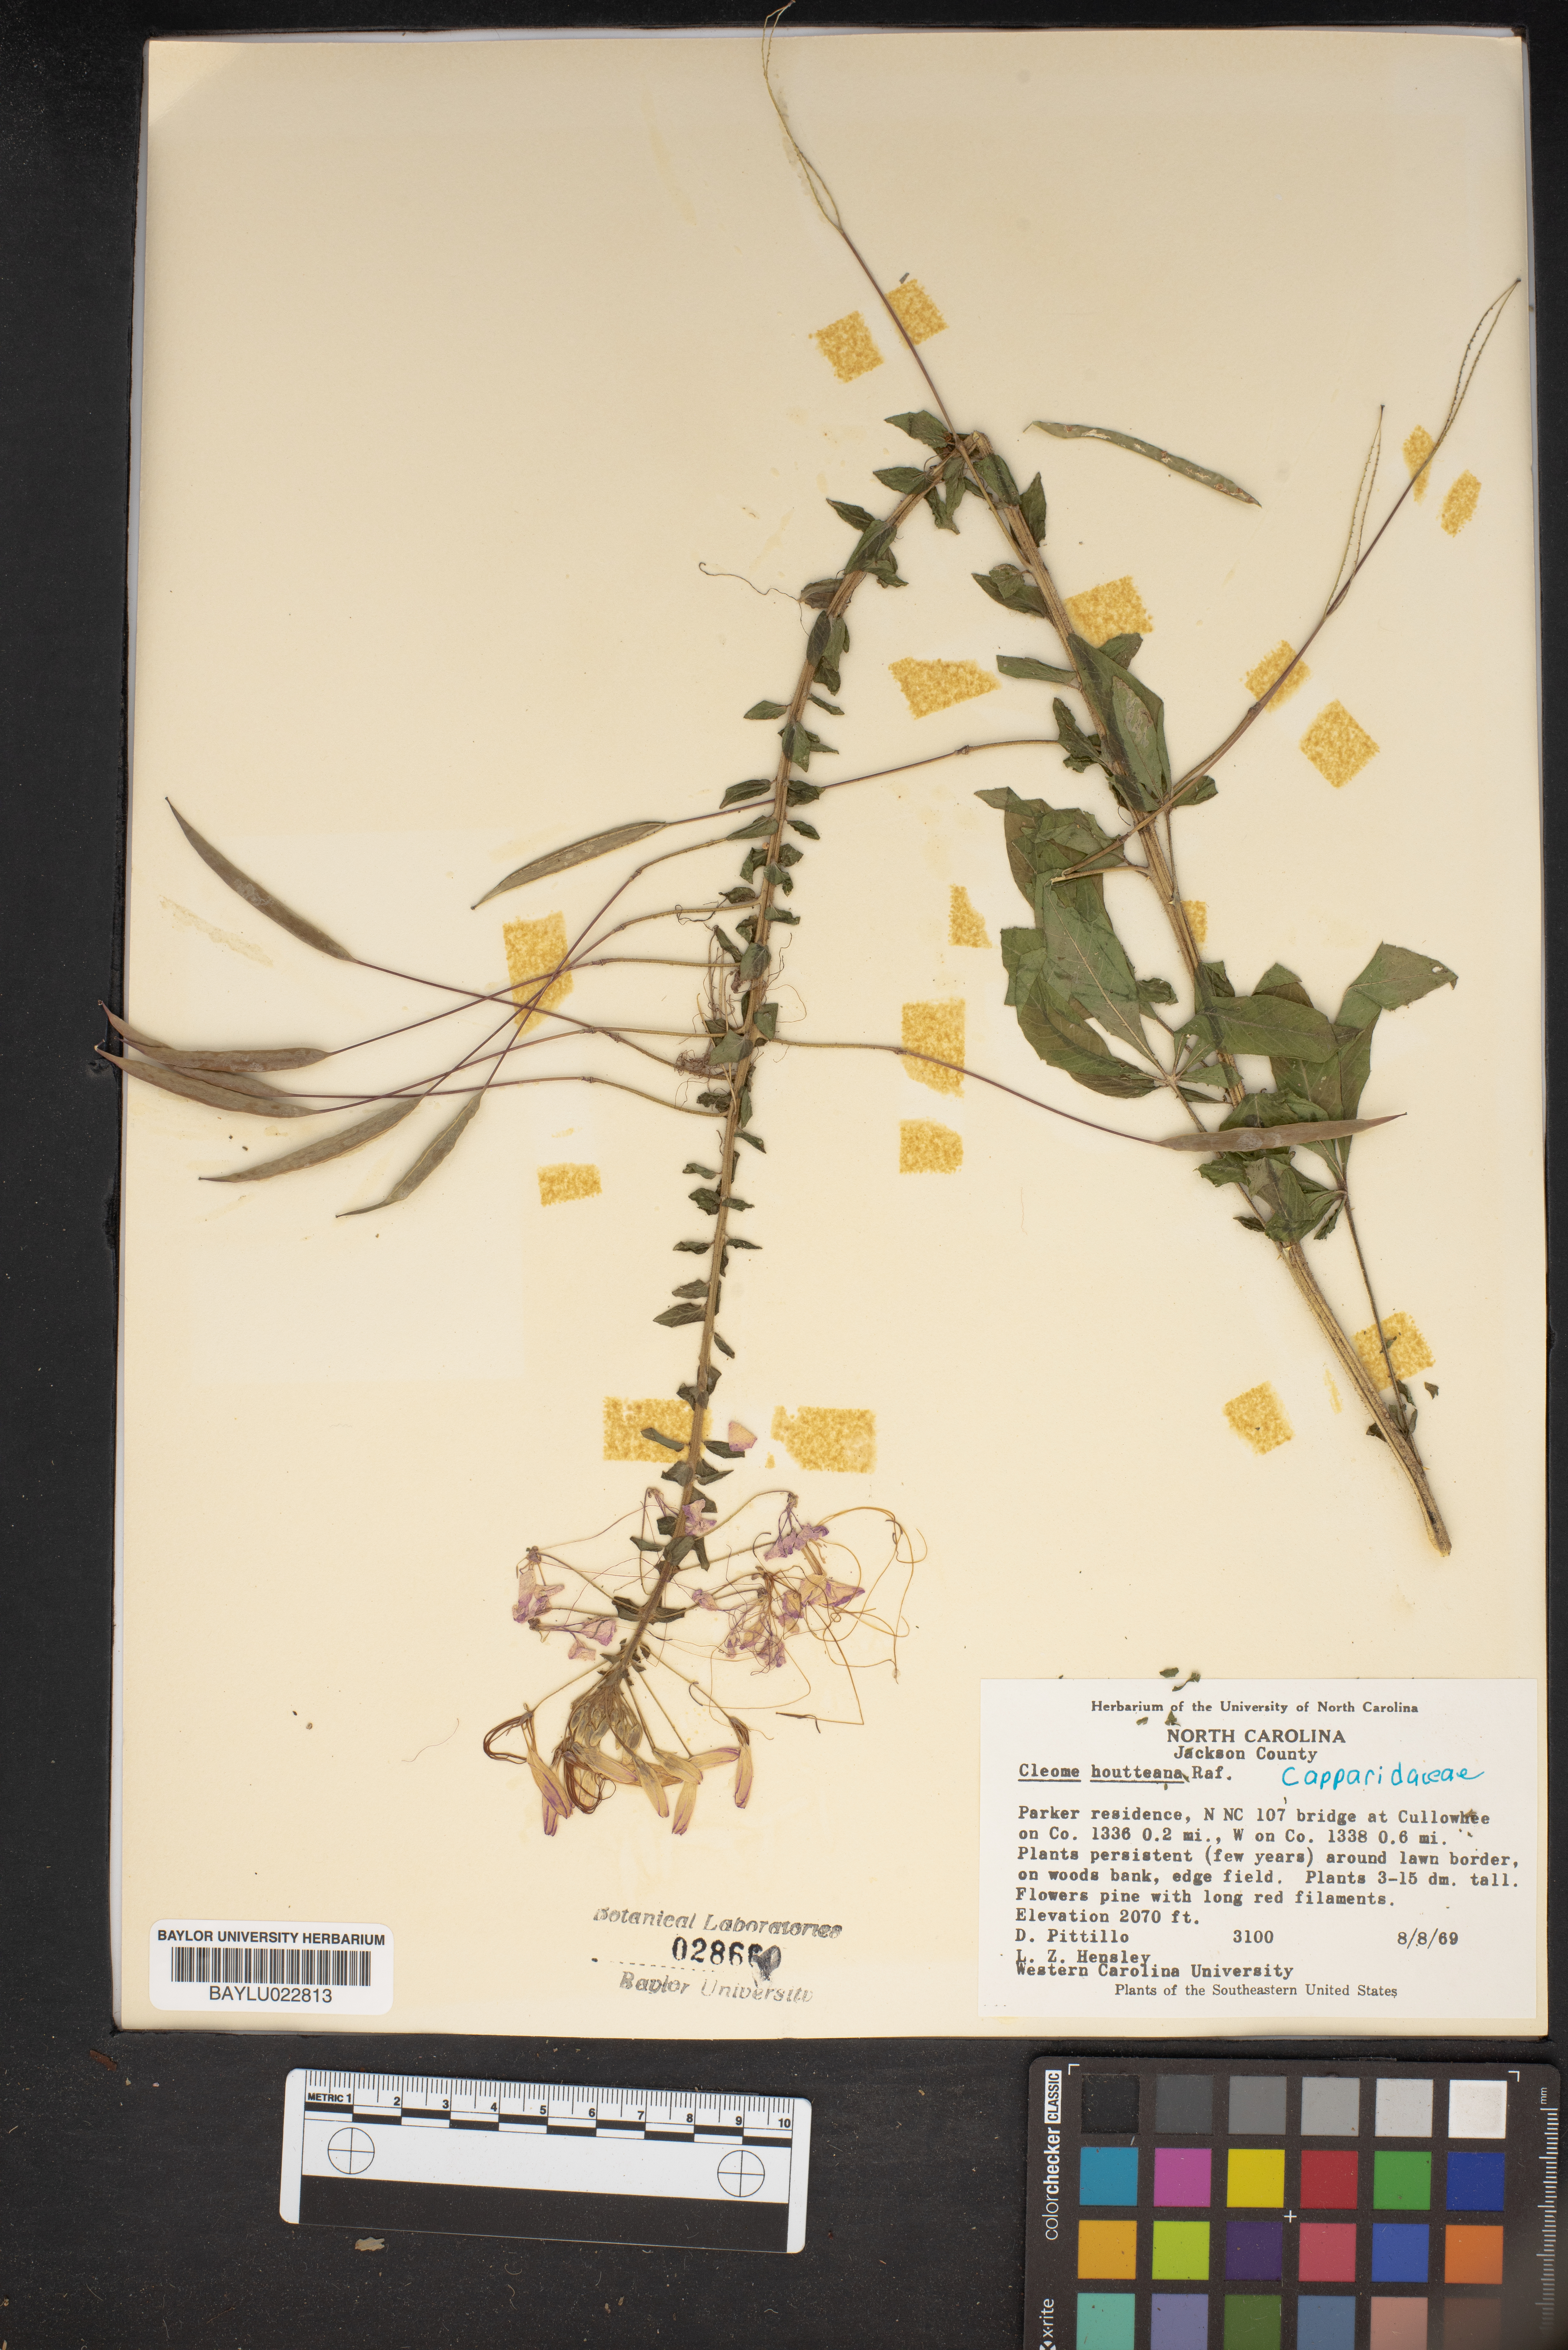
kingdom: Plantae
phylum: Tracheophyta
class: Magnoliopsida
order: Brassicales
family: Cleomaceae
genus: Tarenaya
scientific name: Tarenaya houtteana
